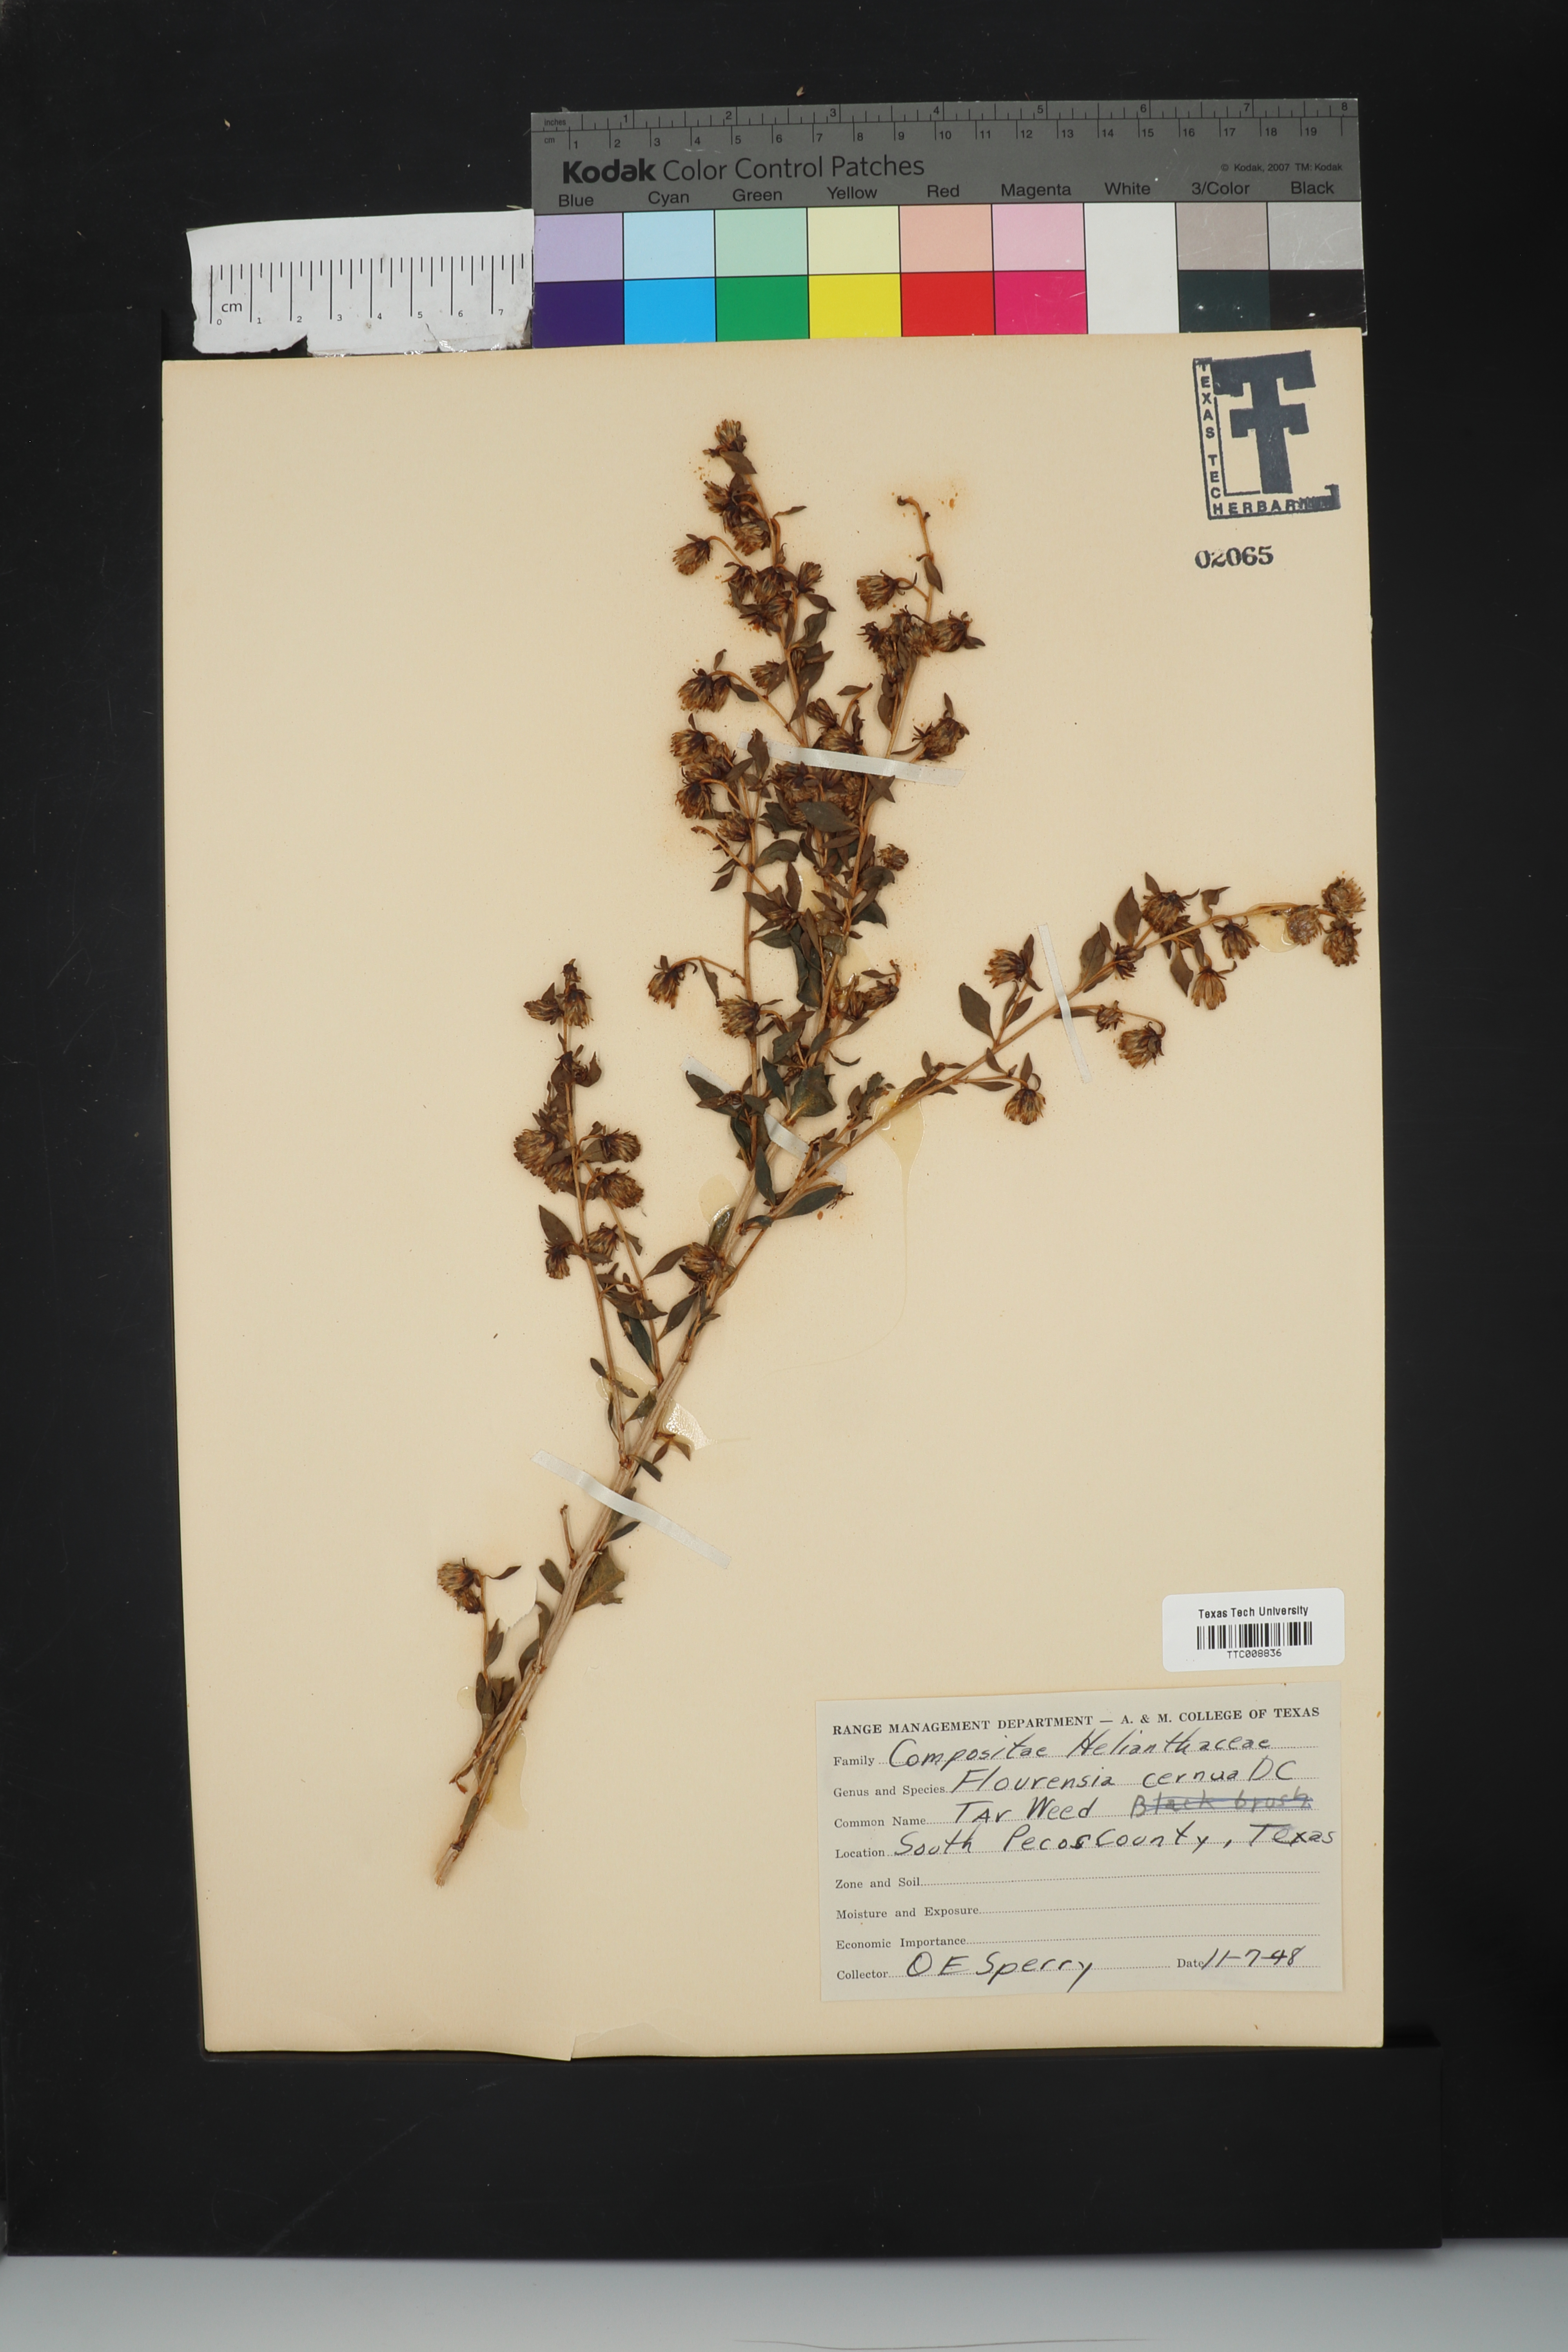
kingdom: Plantae
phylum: Tracheophyta
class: Magnoliopsida
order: Asterales
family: Asteraceae
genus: Flourensia
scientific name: Flourensia cernua
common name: Varnishbush
